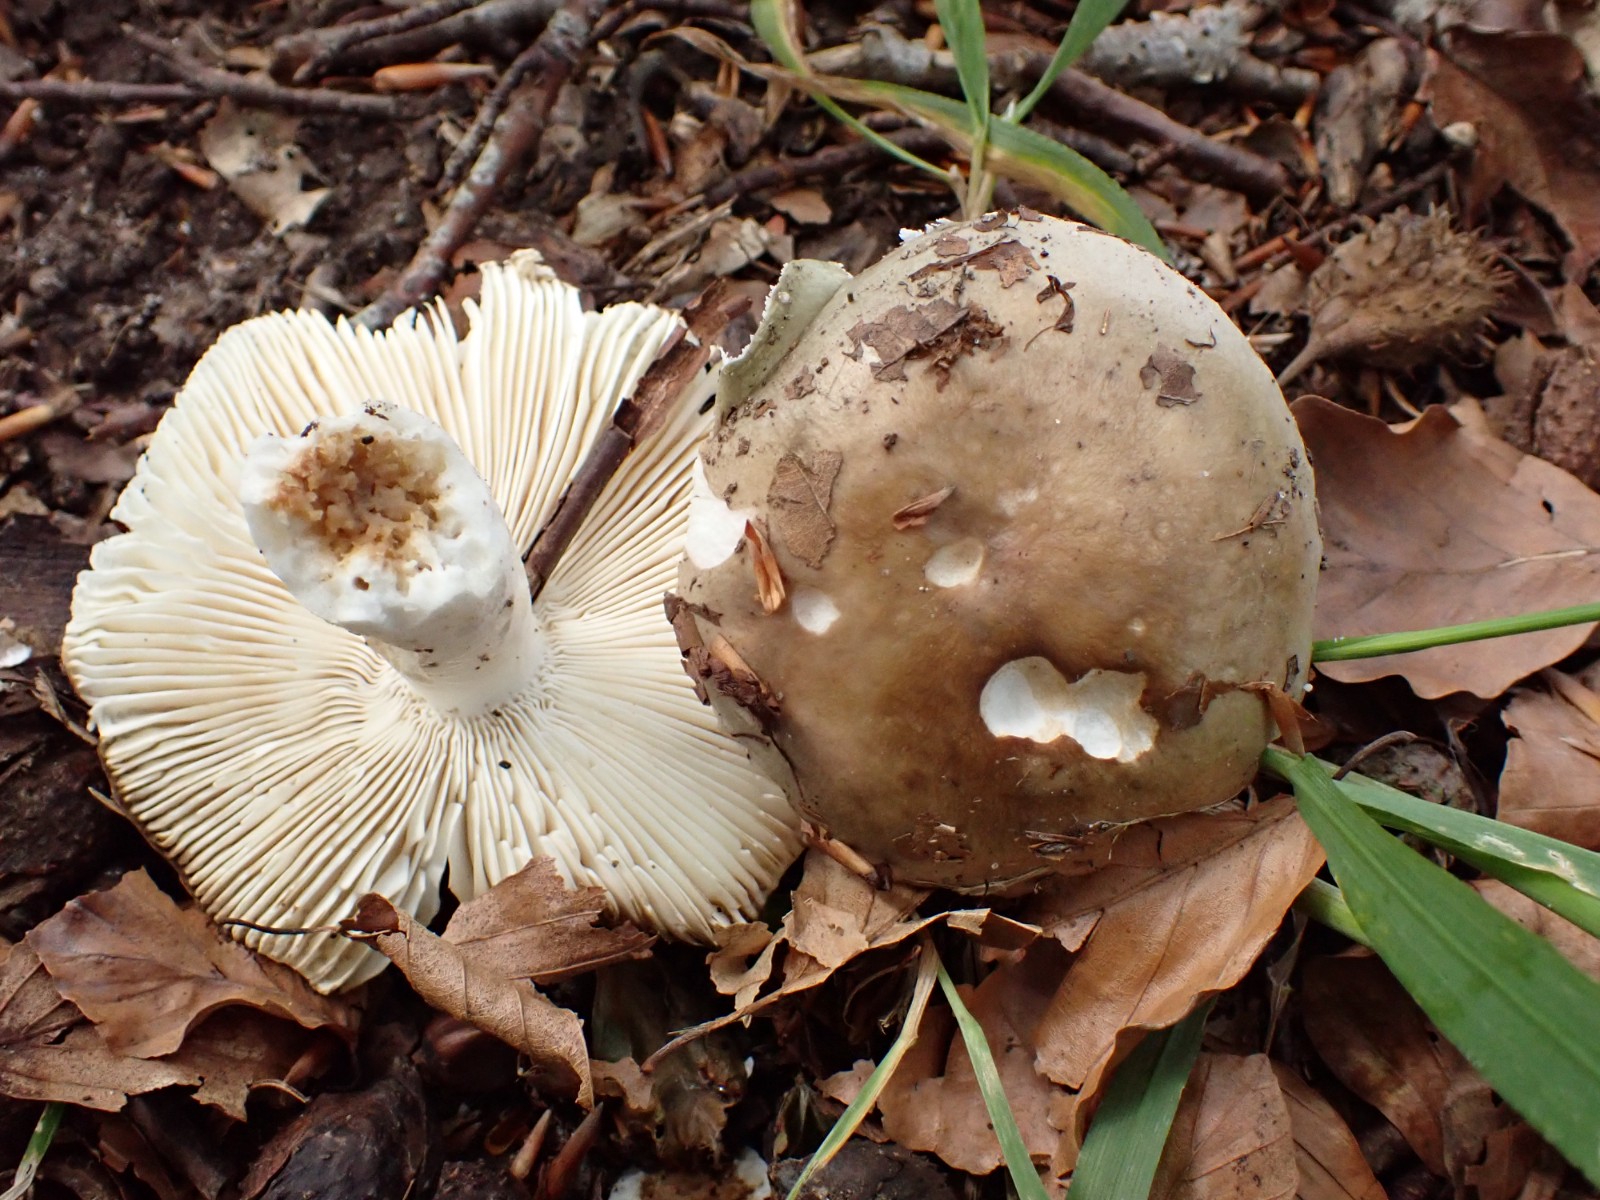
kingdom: Fungi
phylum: Basidiomycota
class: Agaricomycetes
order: Russulales
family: Russulaceae
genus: Russula
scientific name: Russula heterophylla
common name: gaffelbladet skørhat
